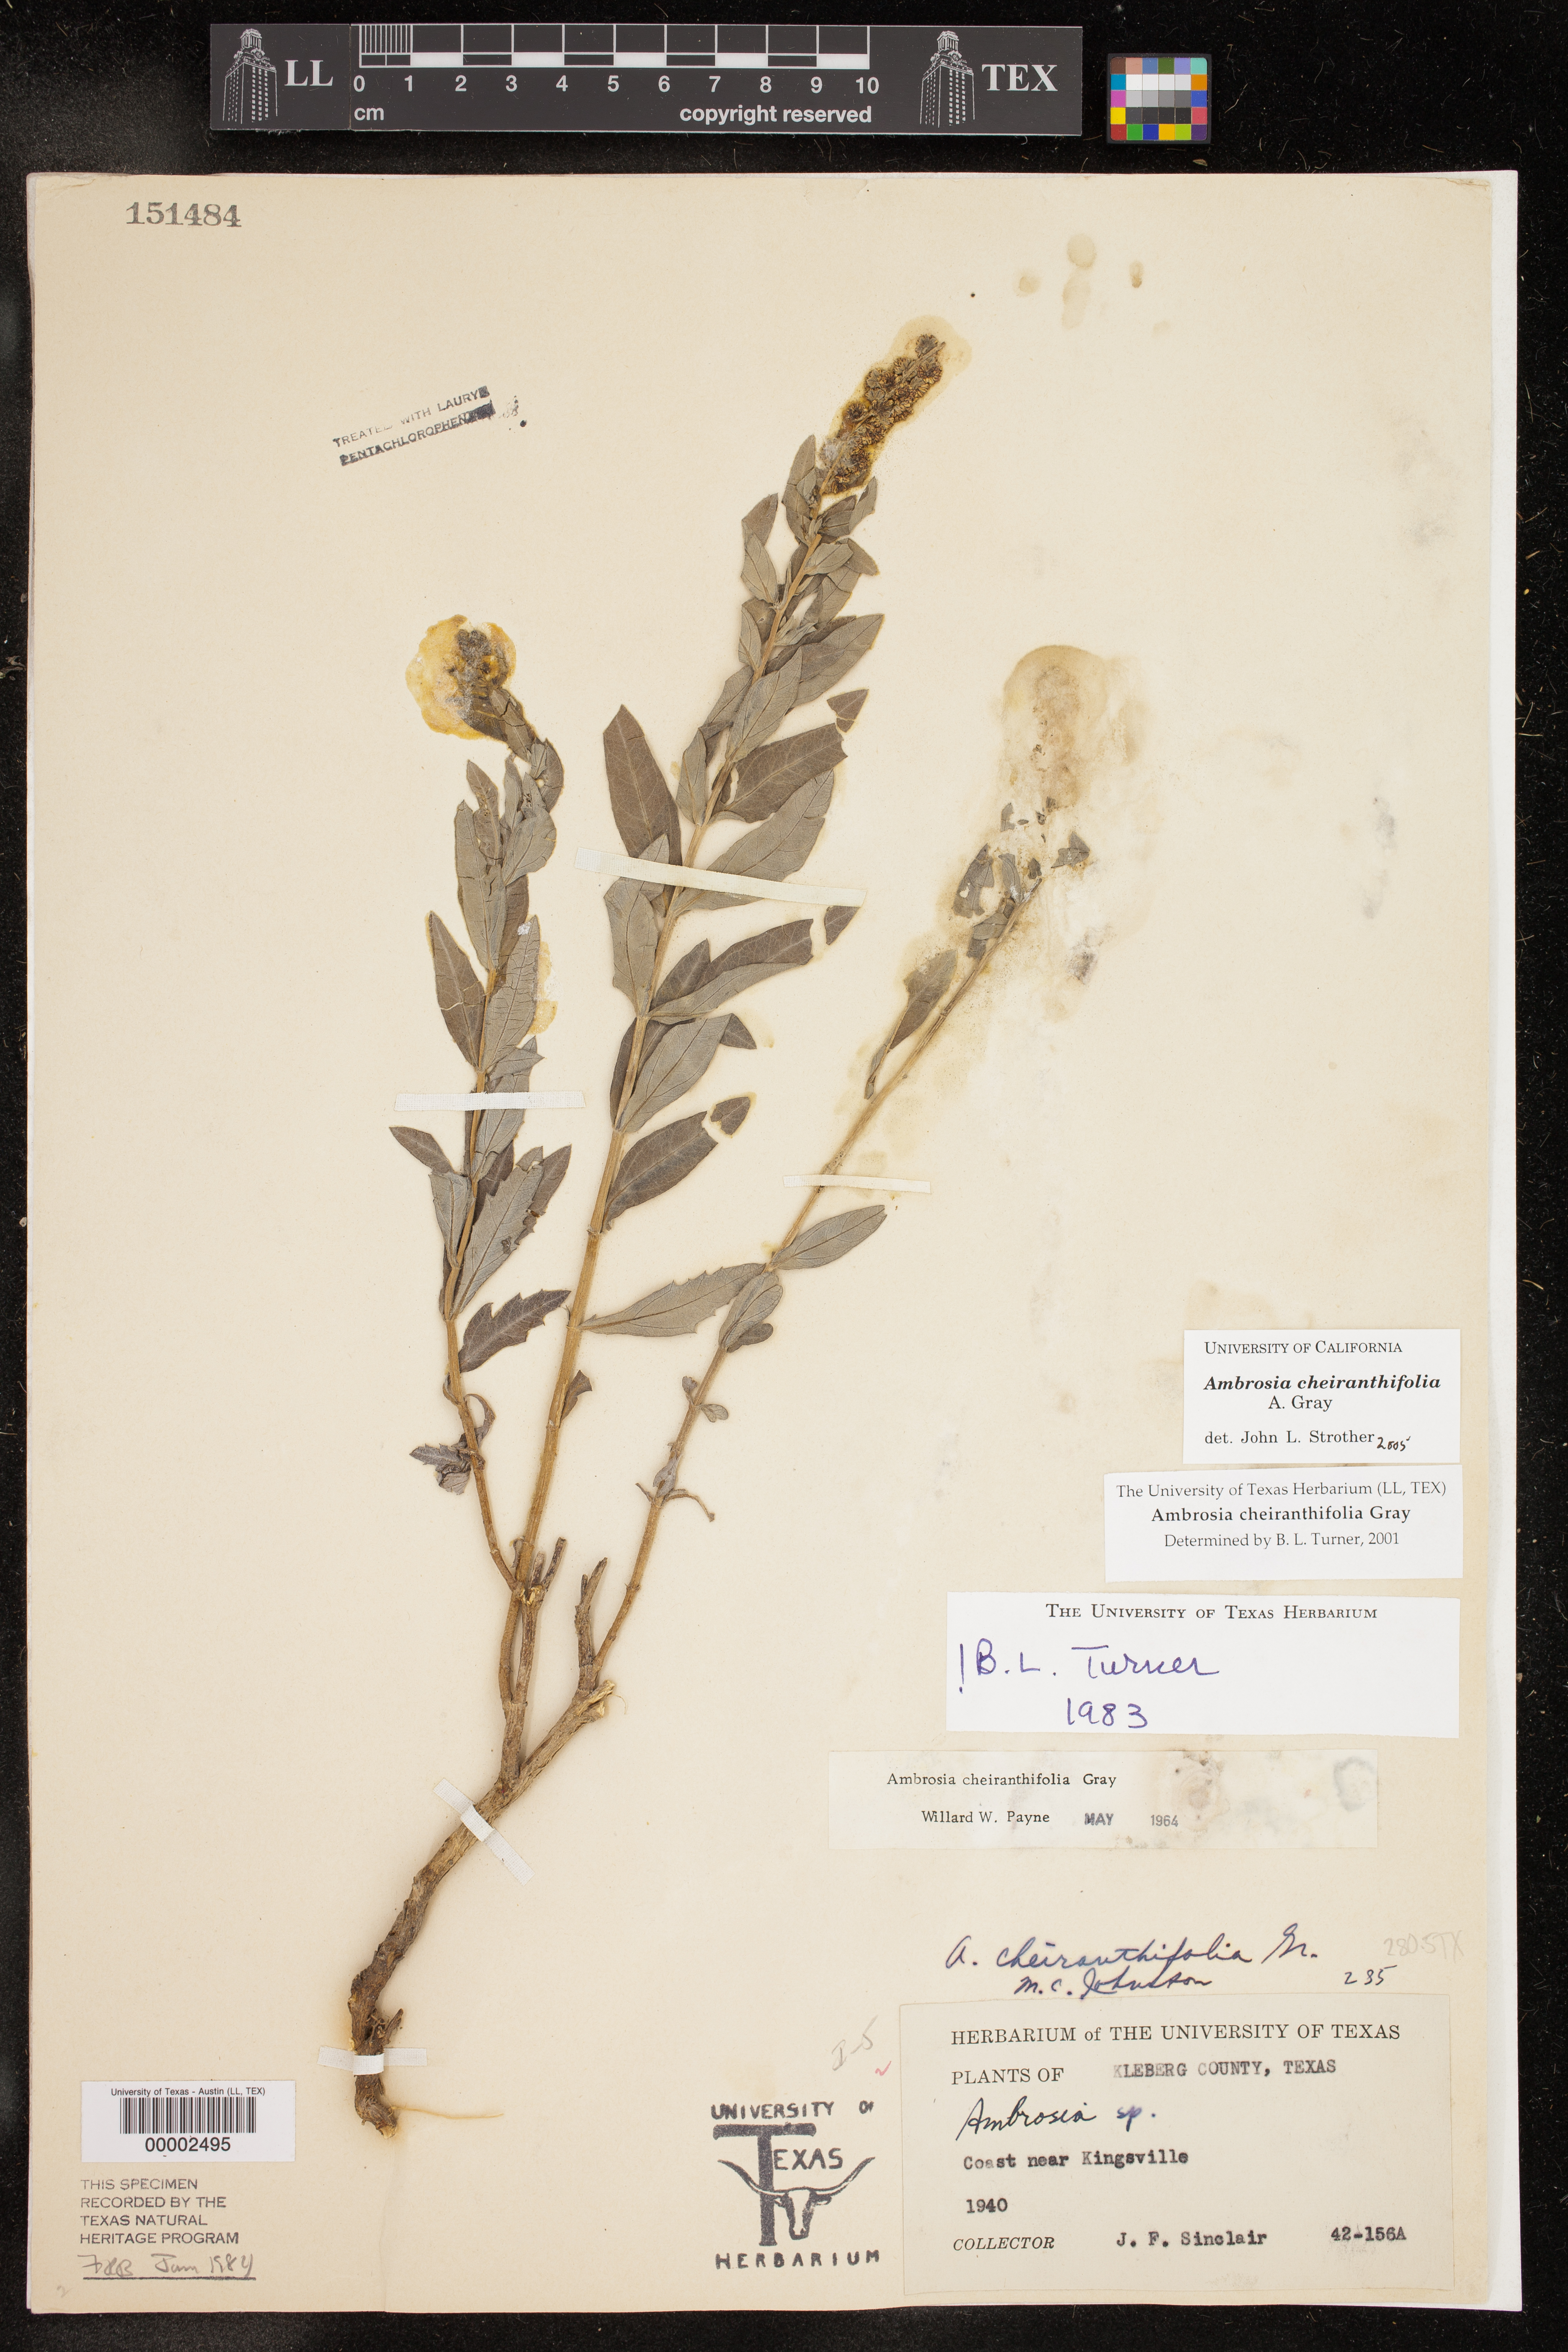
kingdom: Plantae
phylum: Tracheophyta
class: Magnoliopsida
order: Asterales
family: Asteraceae
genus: Ambrosia
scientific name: Ambrosia cheiranthifolia
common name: South texas ambrosia
